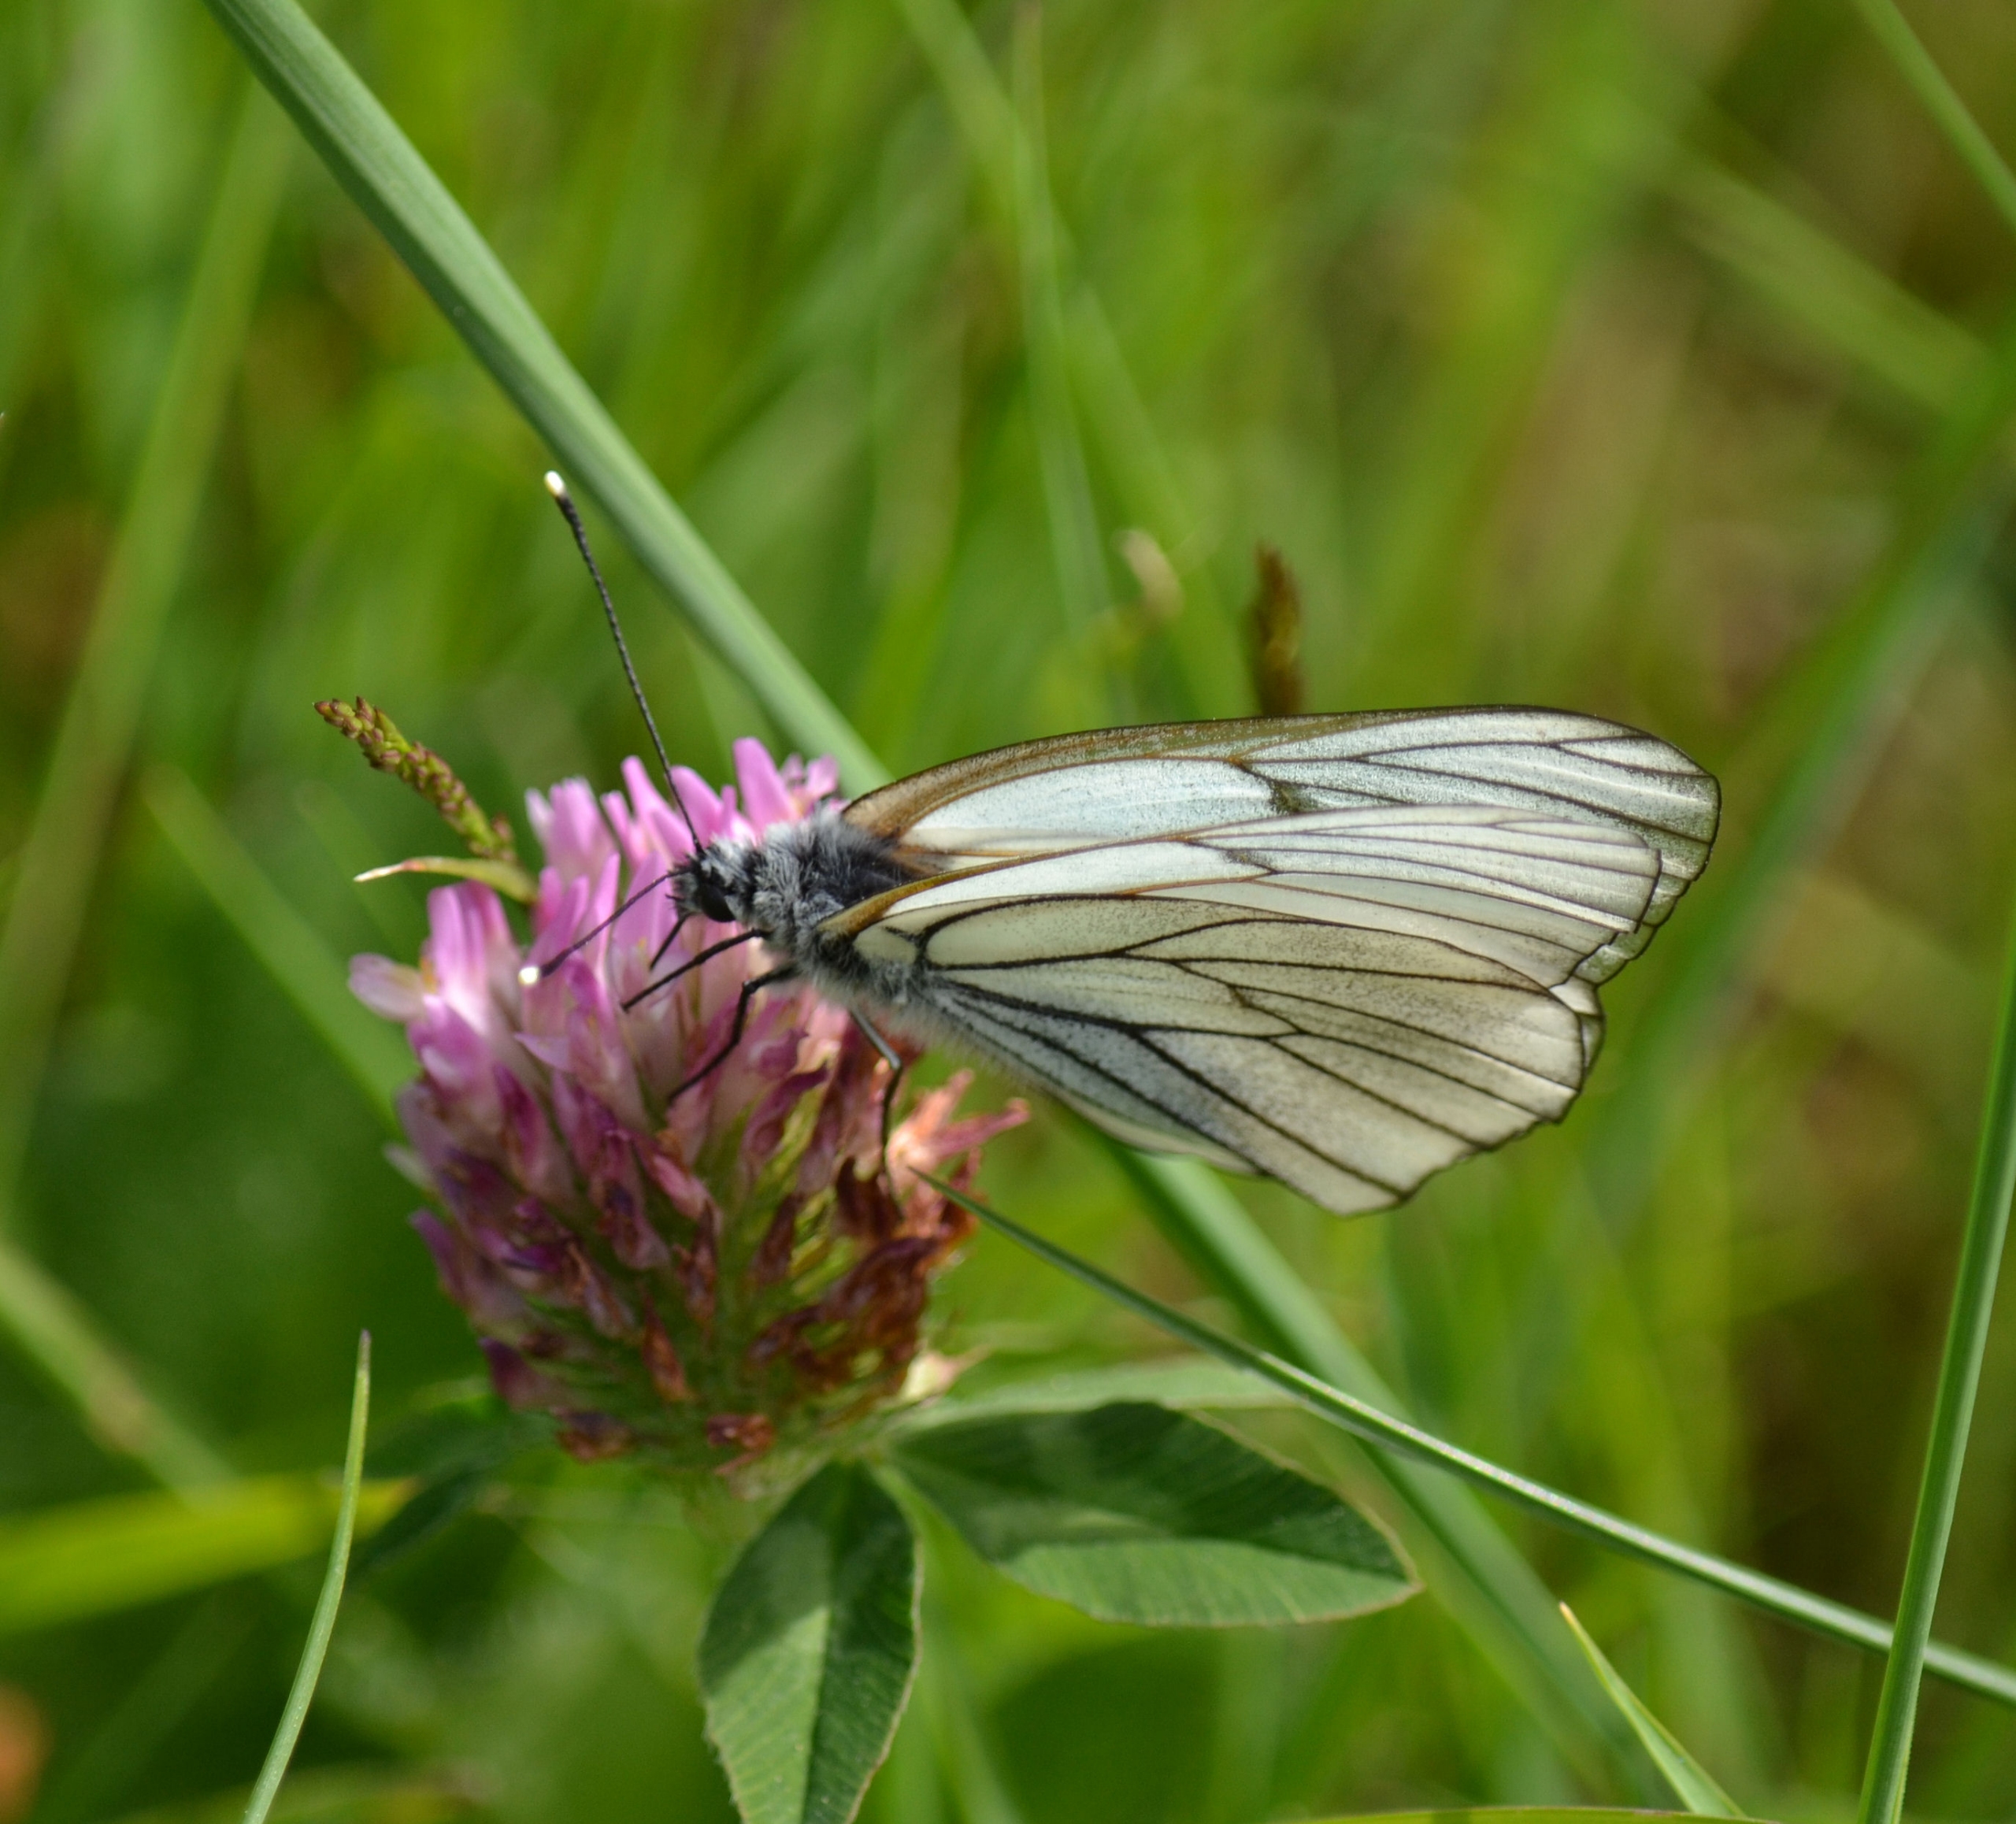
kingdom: Animalia
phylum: Arthropoda
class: Insecta
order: Lepidoptera
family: Pieridae
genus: Aporia
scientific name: Aporia crataegi
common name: Sortåret hvidvinge
